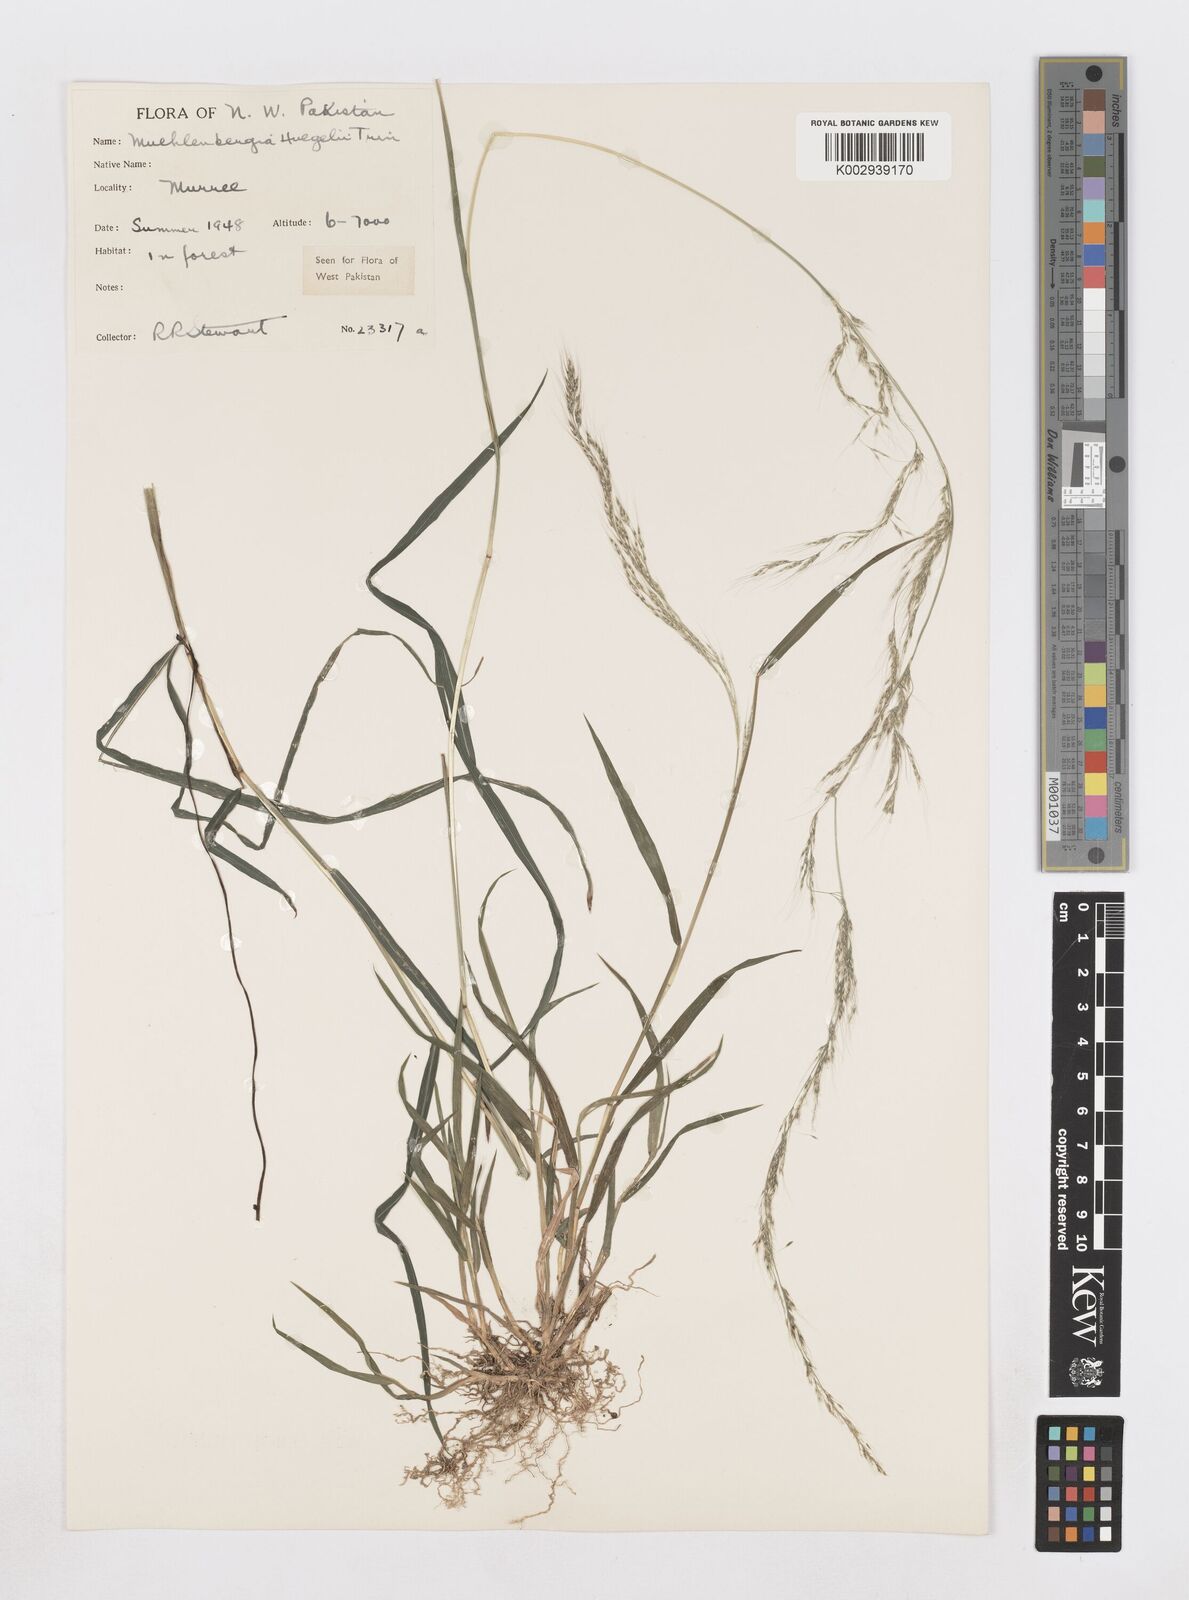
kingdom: Plantae
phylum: Tracheophyta
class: Liliopsida
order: Poales
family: Poaceae
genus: Muhlenbergia
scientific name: Muhlenbergia huegelii
